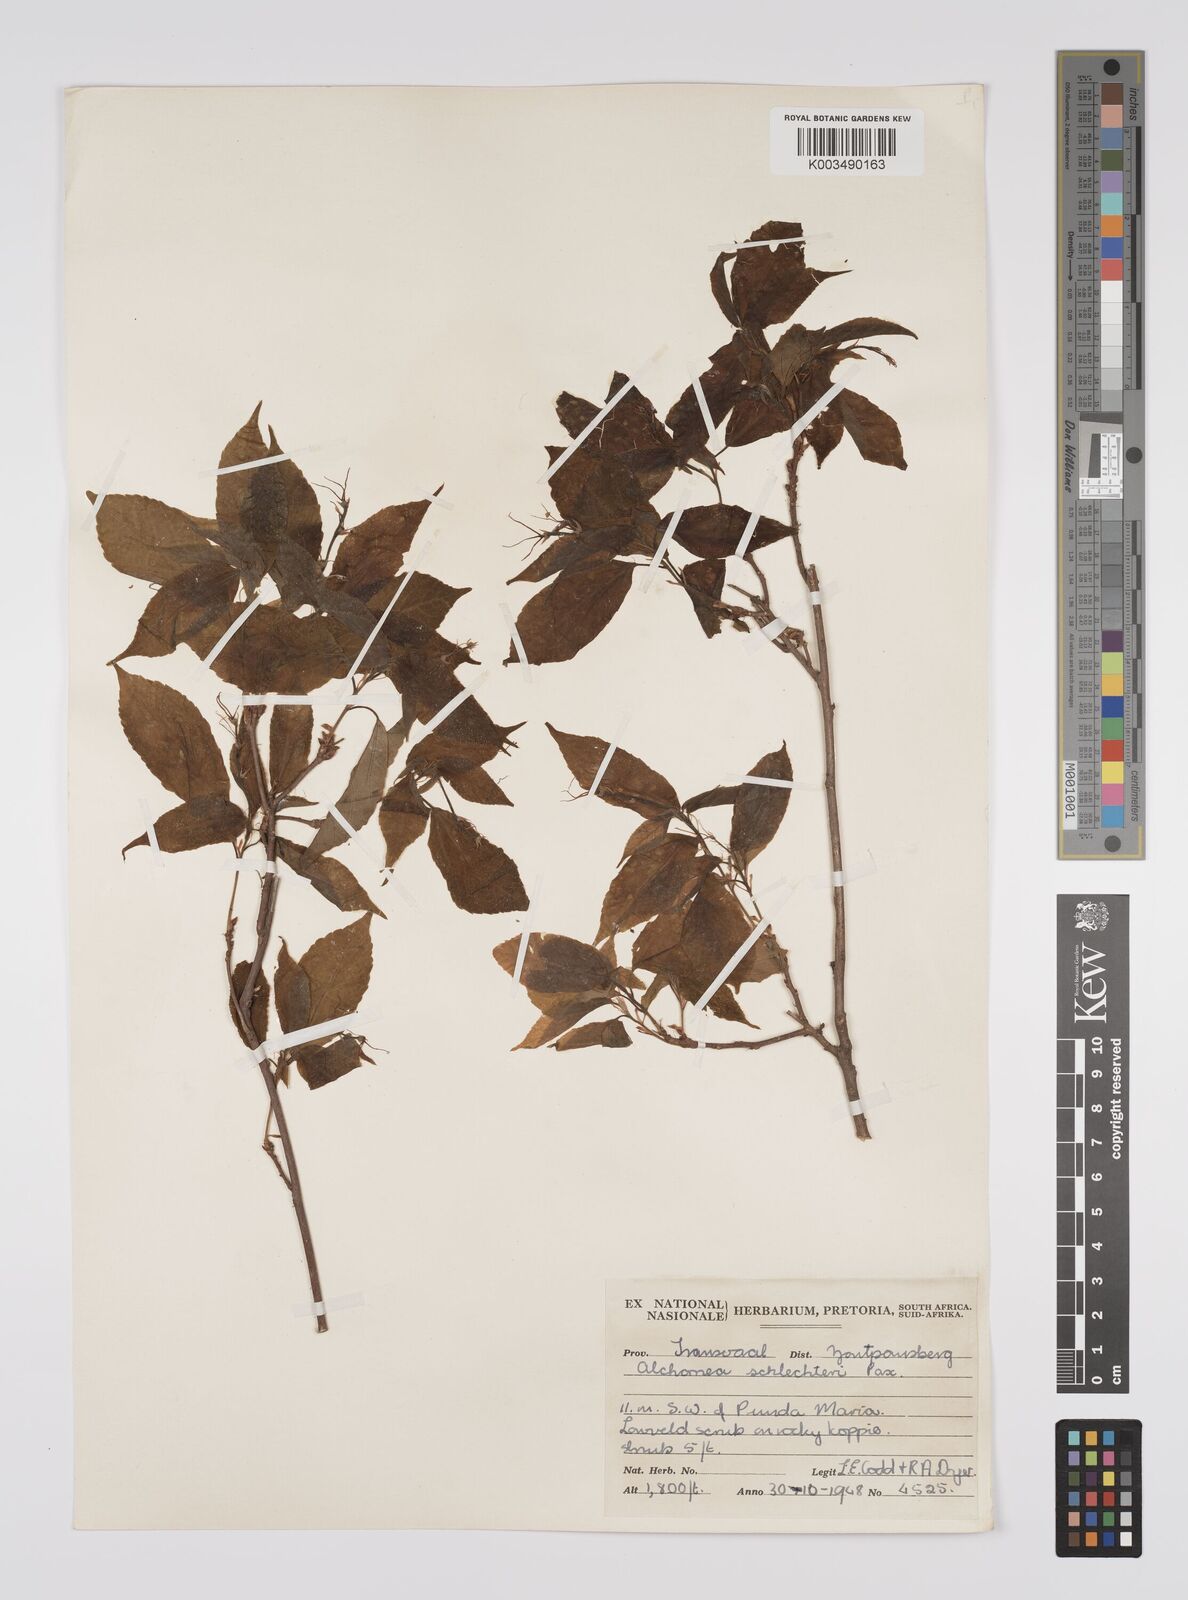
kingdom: Plantae
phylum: Tracheophyta
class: Magnoliopsida
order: Malpighiales
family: Euphorbiaceae
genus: Alchornea
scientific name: Alchornea laxiflora
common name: Lowveld bead-string
